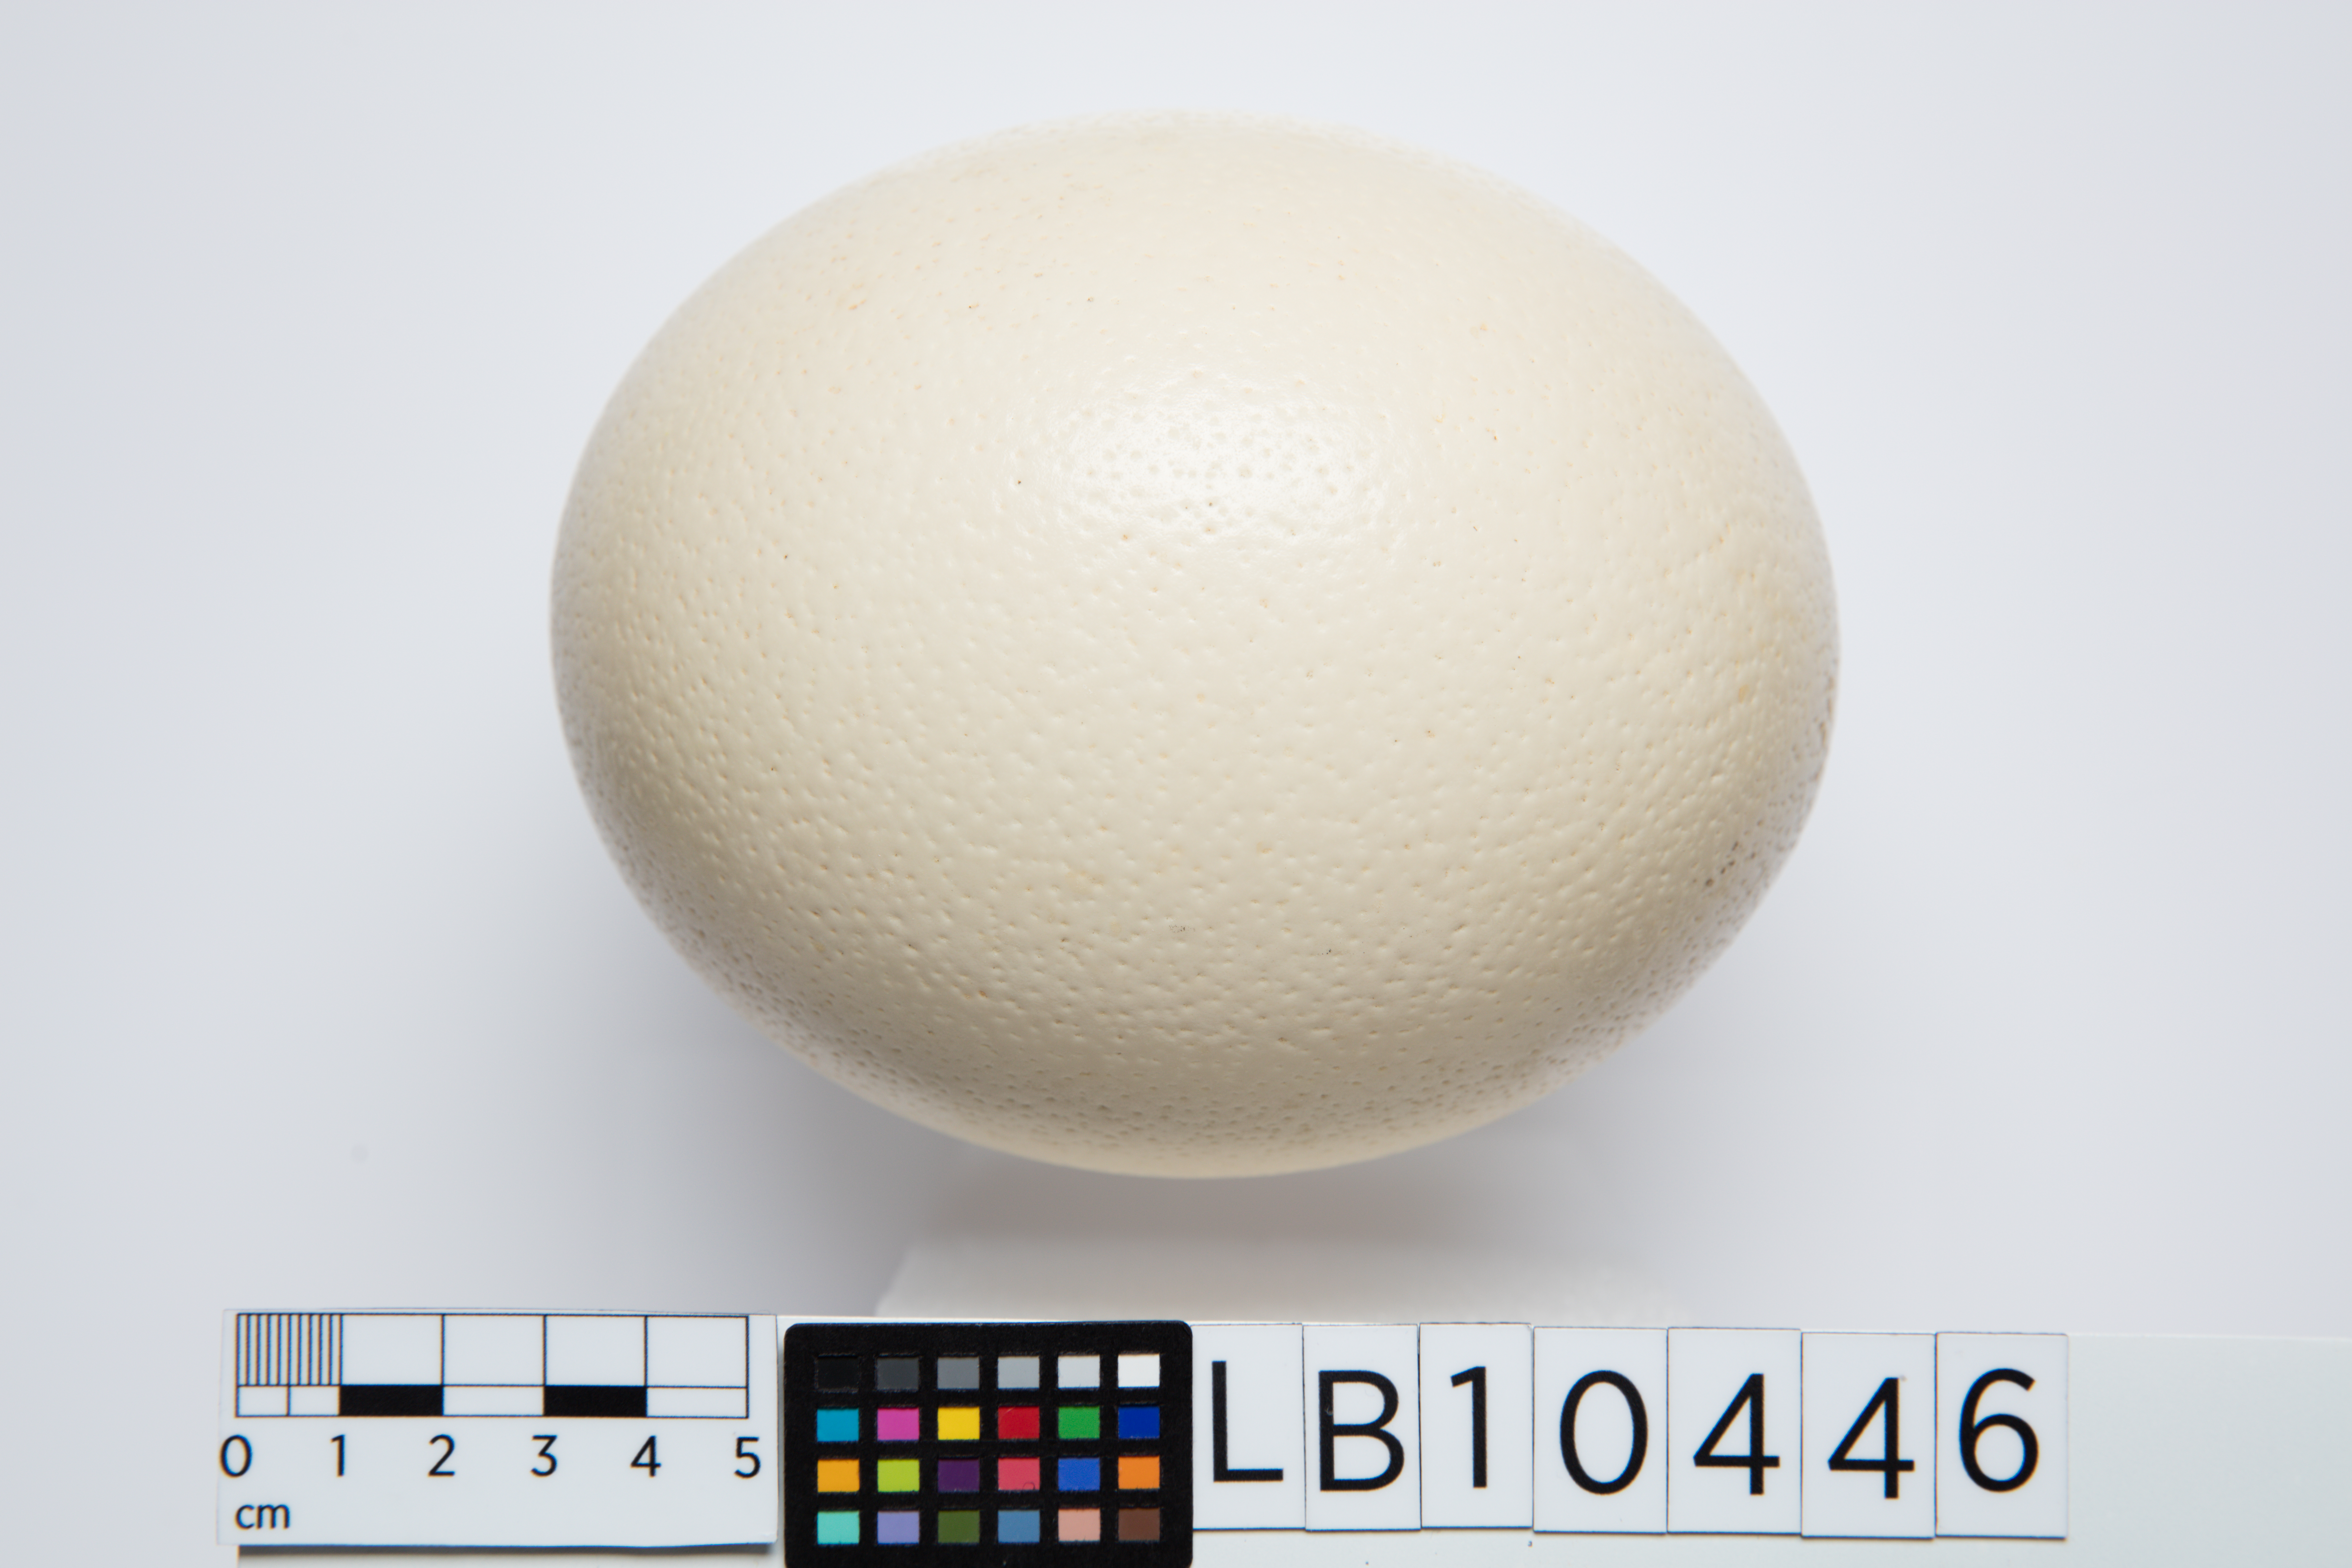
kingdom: Animalia
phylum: Chordata
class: Aves
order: Struthioniformes
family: Struthionidae
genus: Struthio
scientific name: Struthio camelus
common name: Common ostrich
